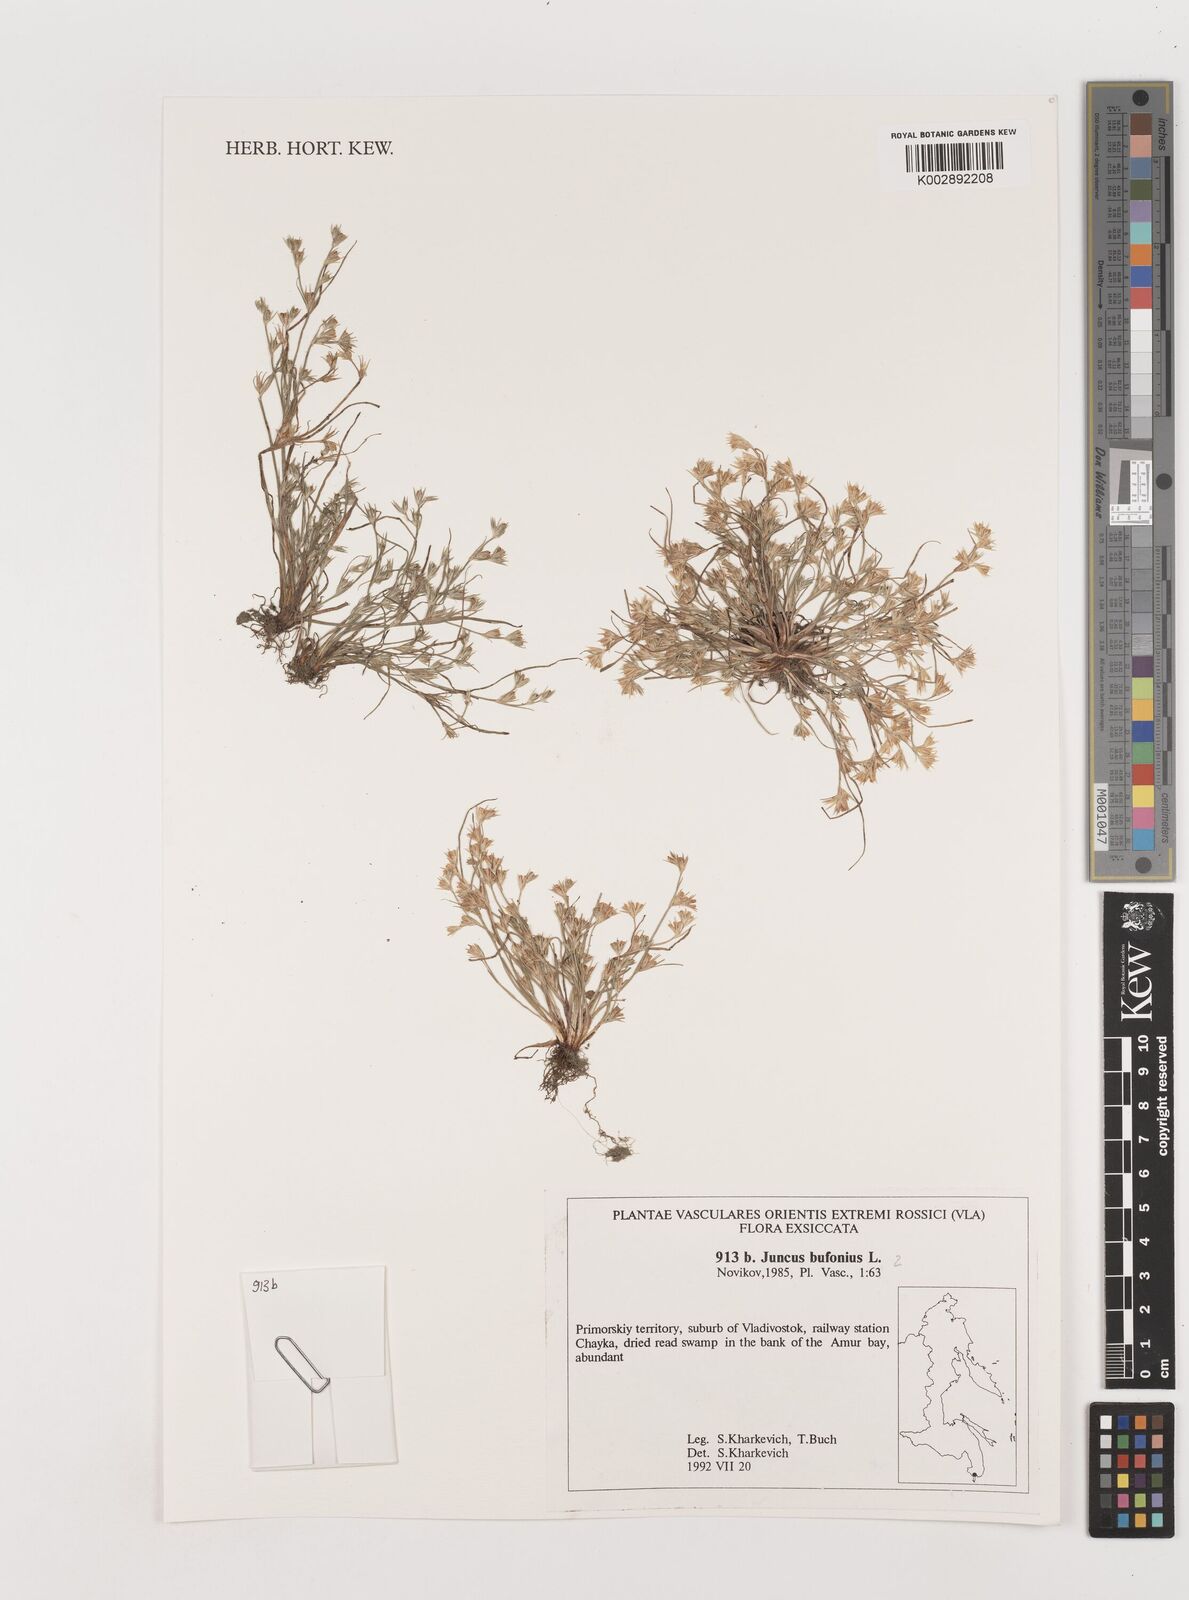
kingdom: Plantae
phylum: Tracheophyta
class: Liliopsida
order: Poales
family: Juncaceae
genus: Juncus
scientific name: Juncus bufonius
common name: Toad rush
